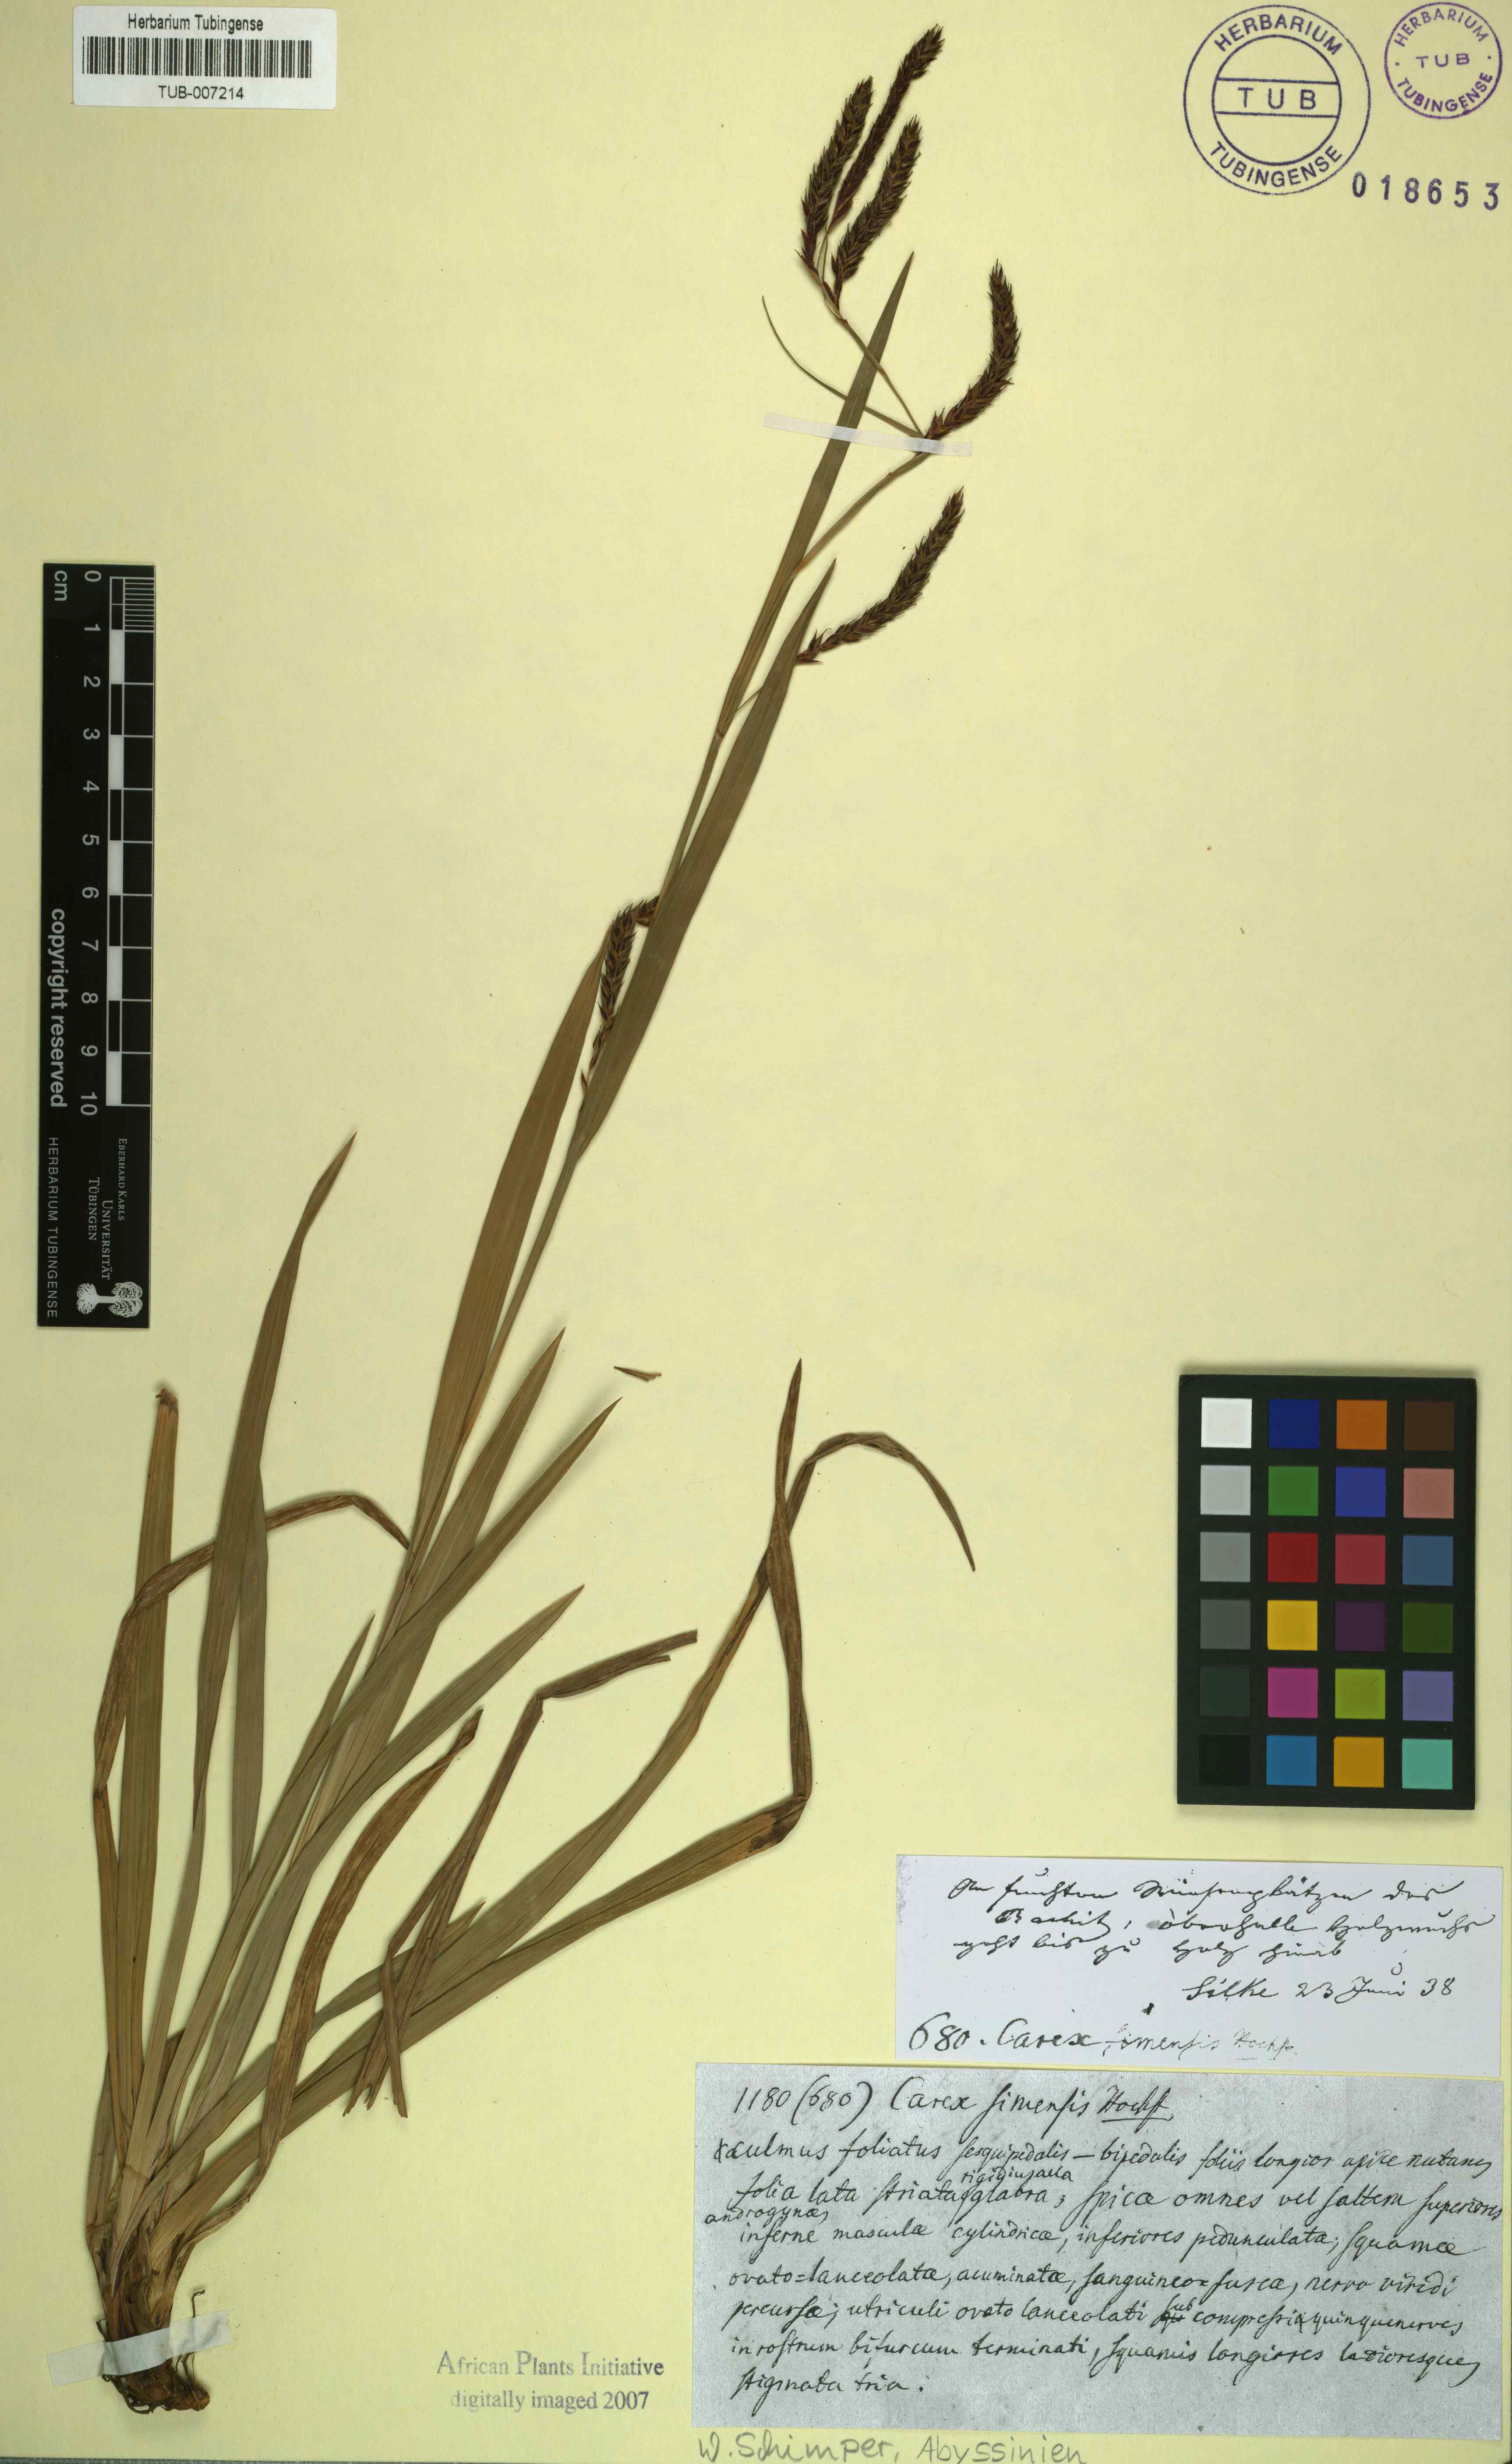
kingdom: Plantae
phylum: Tracheophyta
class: Liliopsida
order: Poales
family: Cyperaceae
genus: Carex
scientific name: Carex simensis
